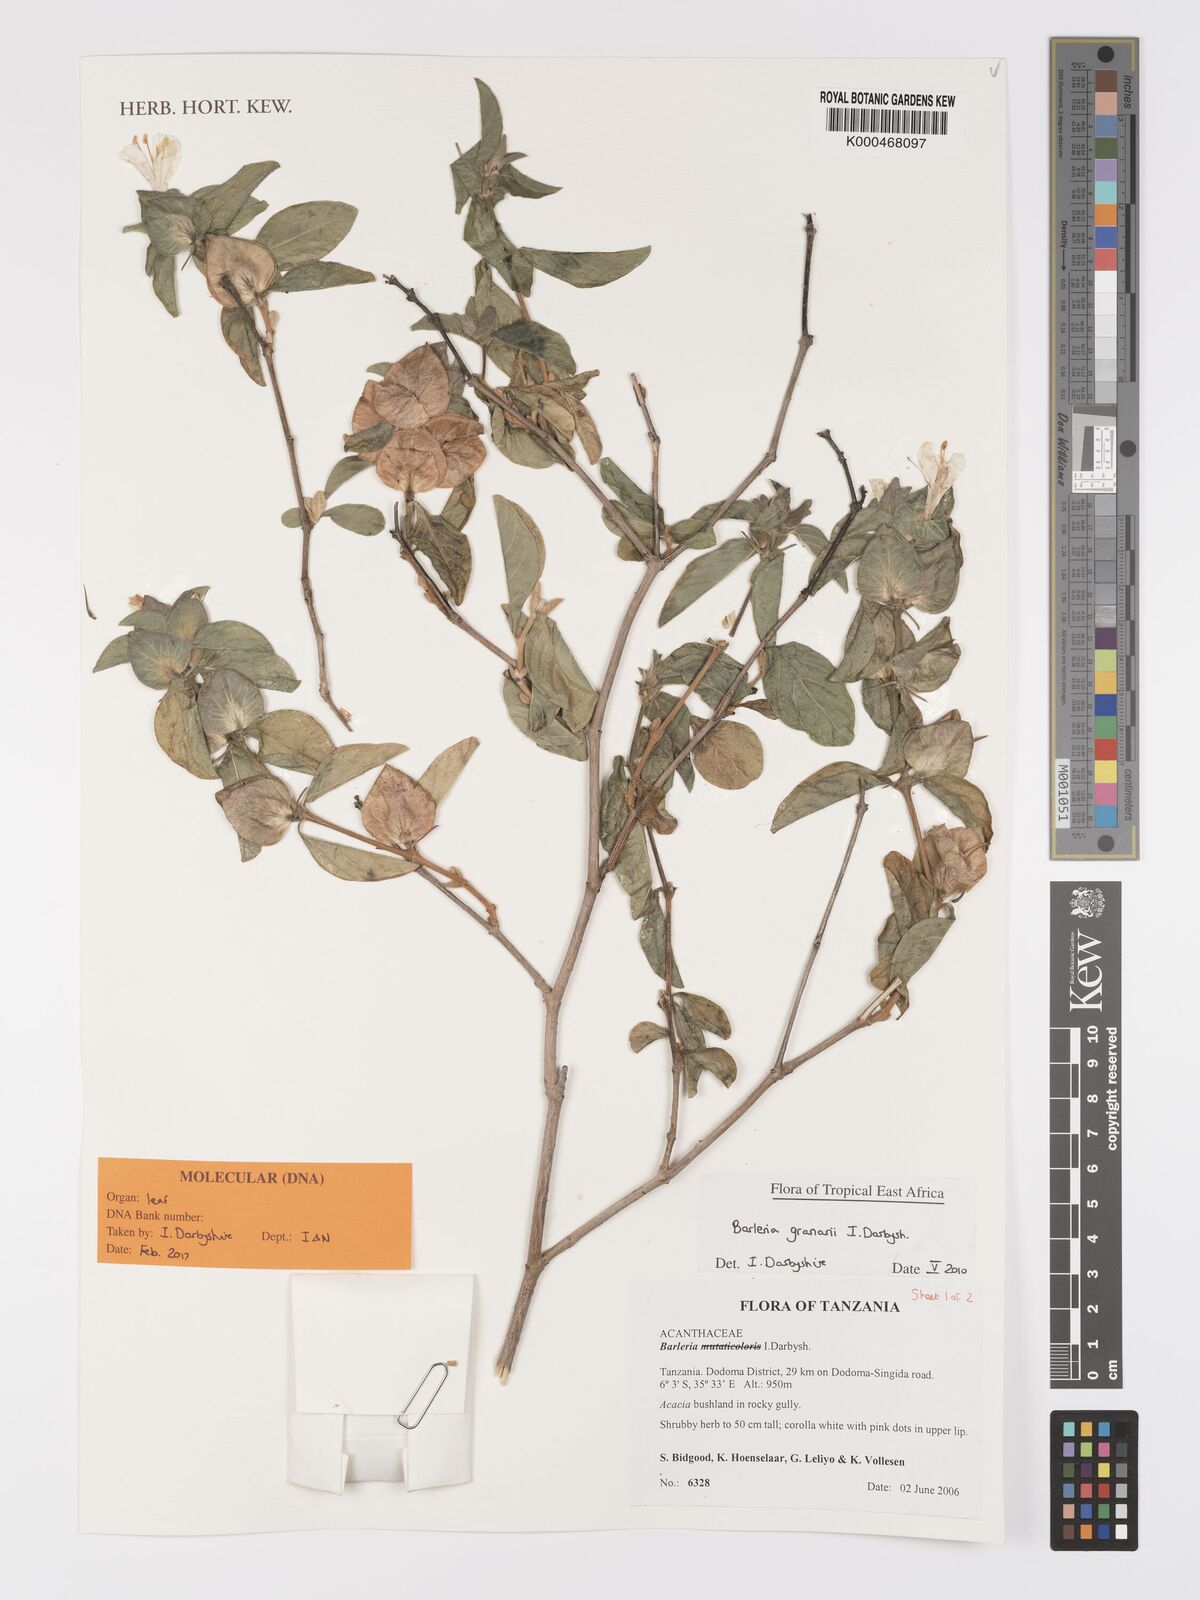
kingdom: Plantae
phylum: Tracheophyta
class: Magnoliopsida
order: Lamiales
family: Acanthaceae
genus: Barleria
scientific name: Barleria
